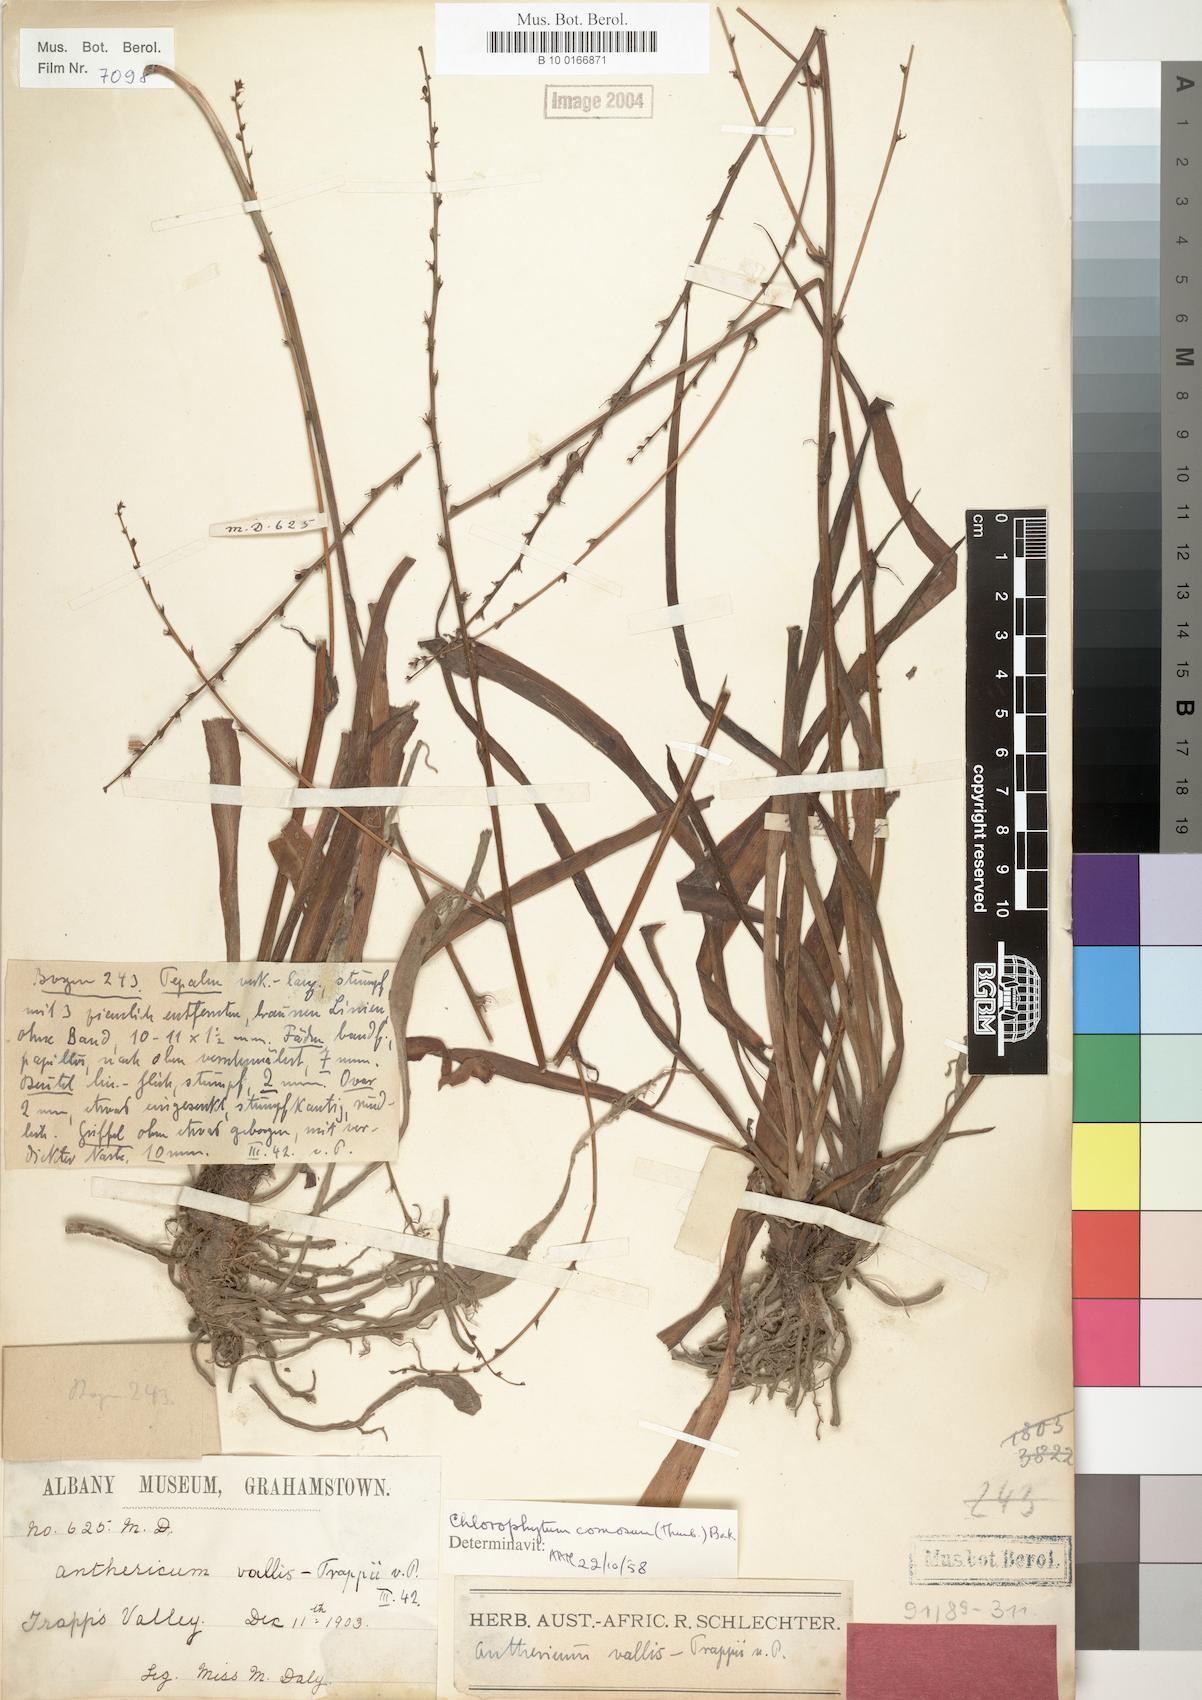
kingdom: Plantae
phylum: Tracheophyta
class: Liliopsida
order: Asparagales
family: Asparagaceae
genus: Chlorophytum
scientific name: Chlorophytum comosum
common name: Spider plant
